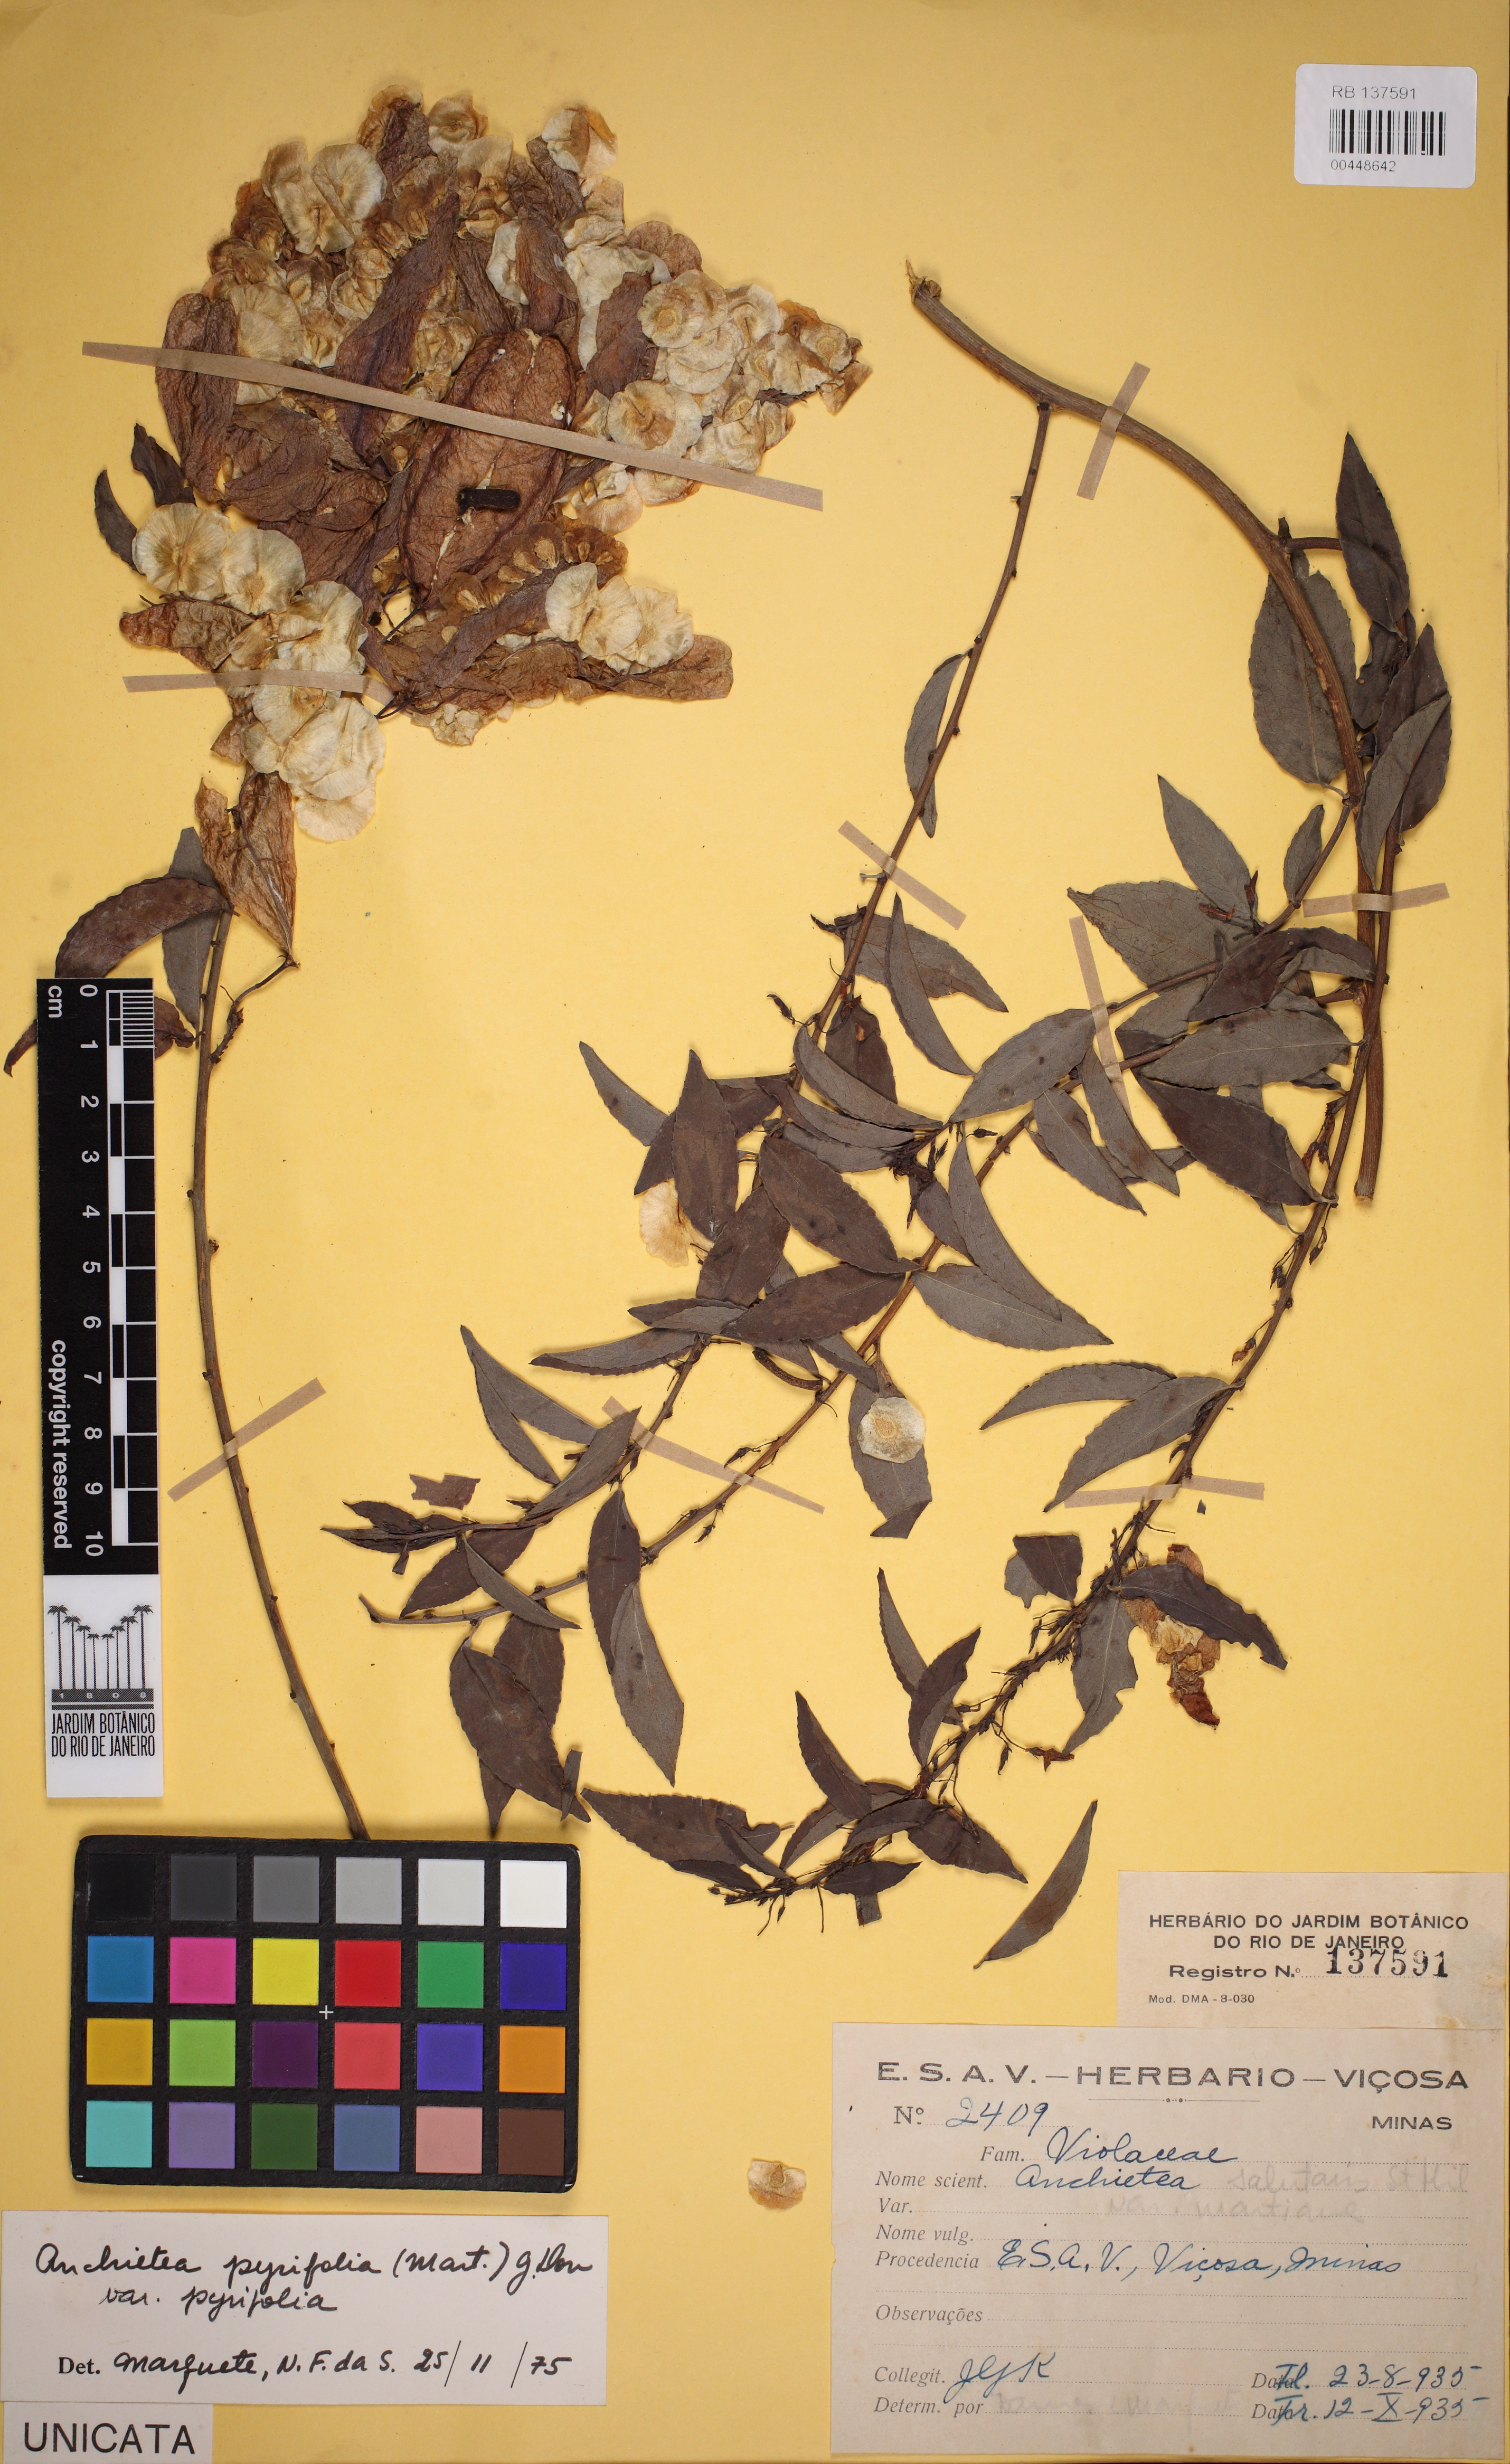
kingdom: Plantae
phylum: Tracheophyta
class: Magnoliopsida
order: Malpighiales
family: Violaceae
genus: Anchietea
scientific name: Anchietea pyrifolia
